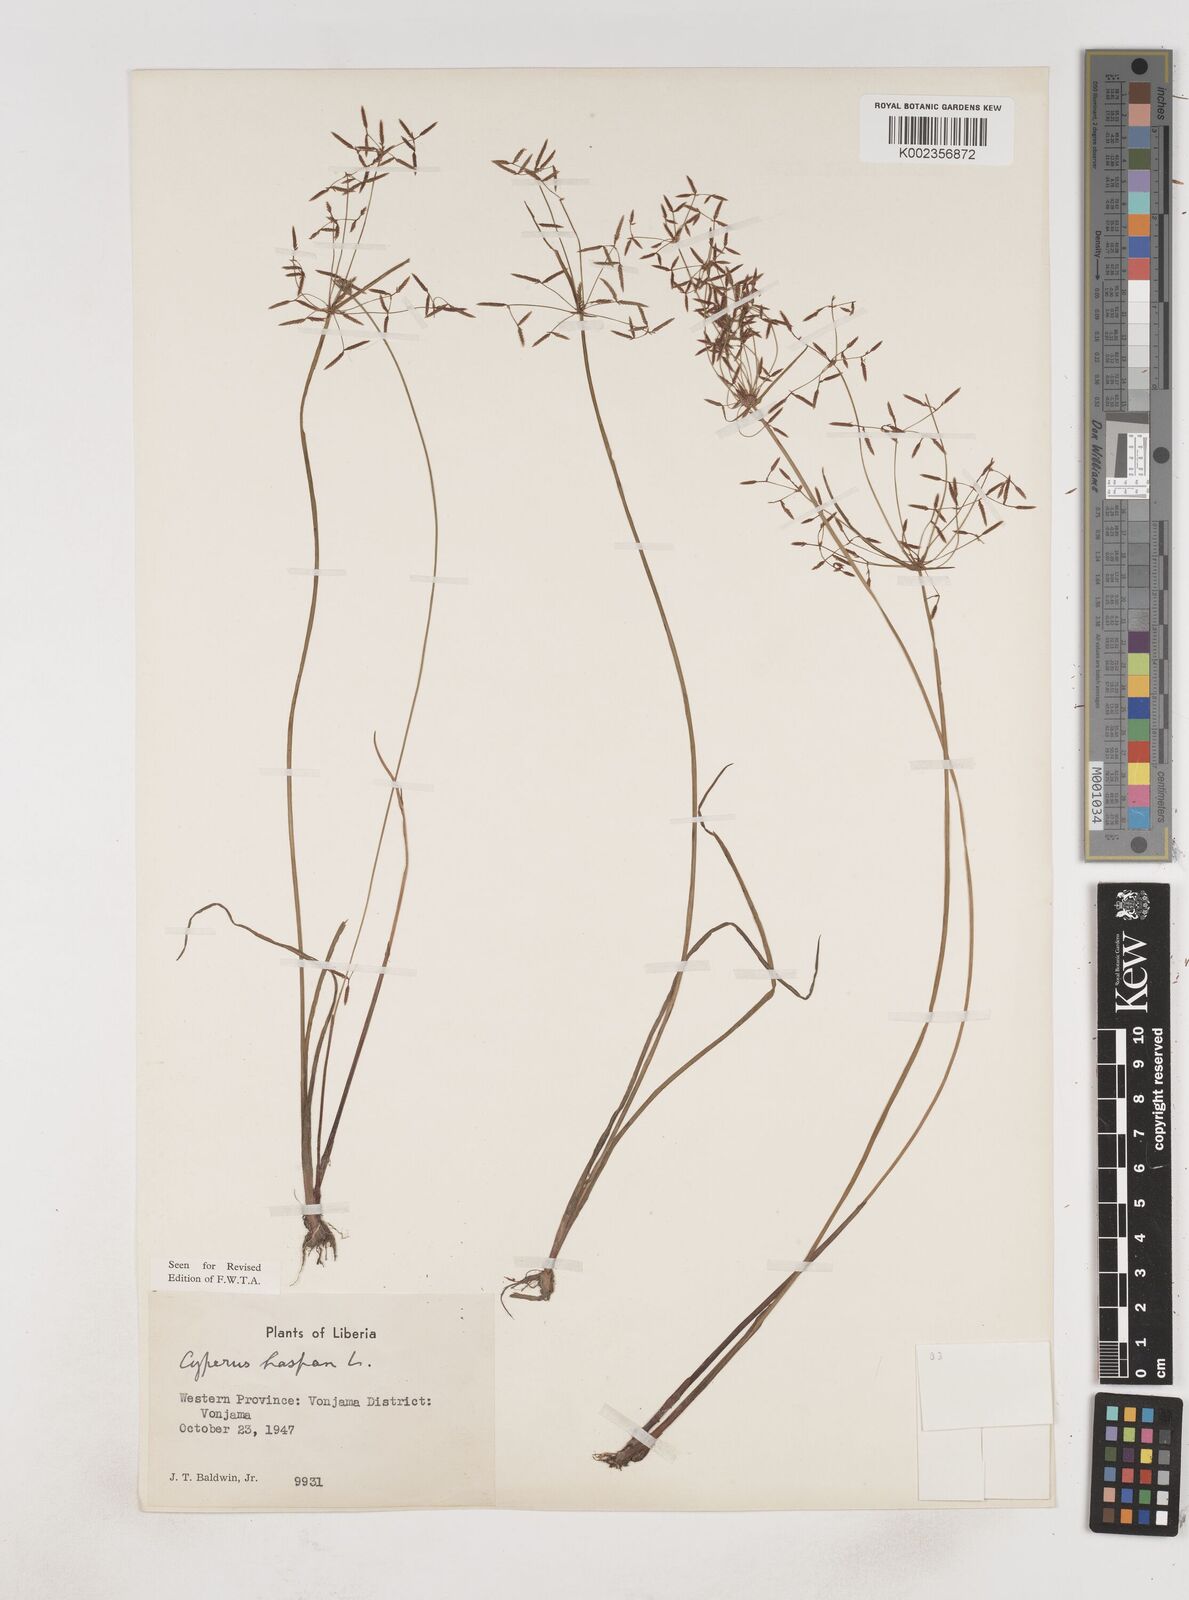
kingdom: Plantae
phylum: Tracheophyta
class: Liliopsida
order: Poales
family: Cyperaceae
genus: Cyperus
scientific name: Cyperus haspan
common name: Haspan flatsedge
